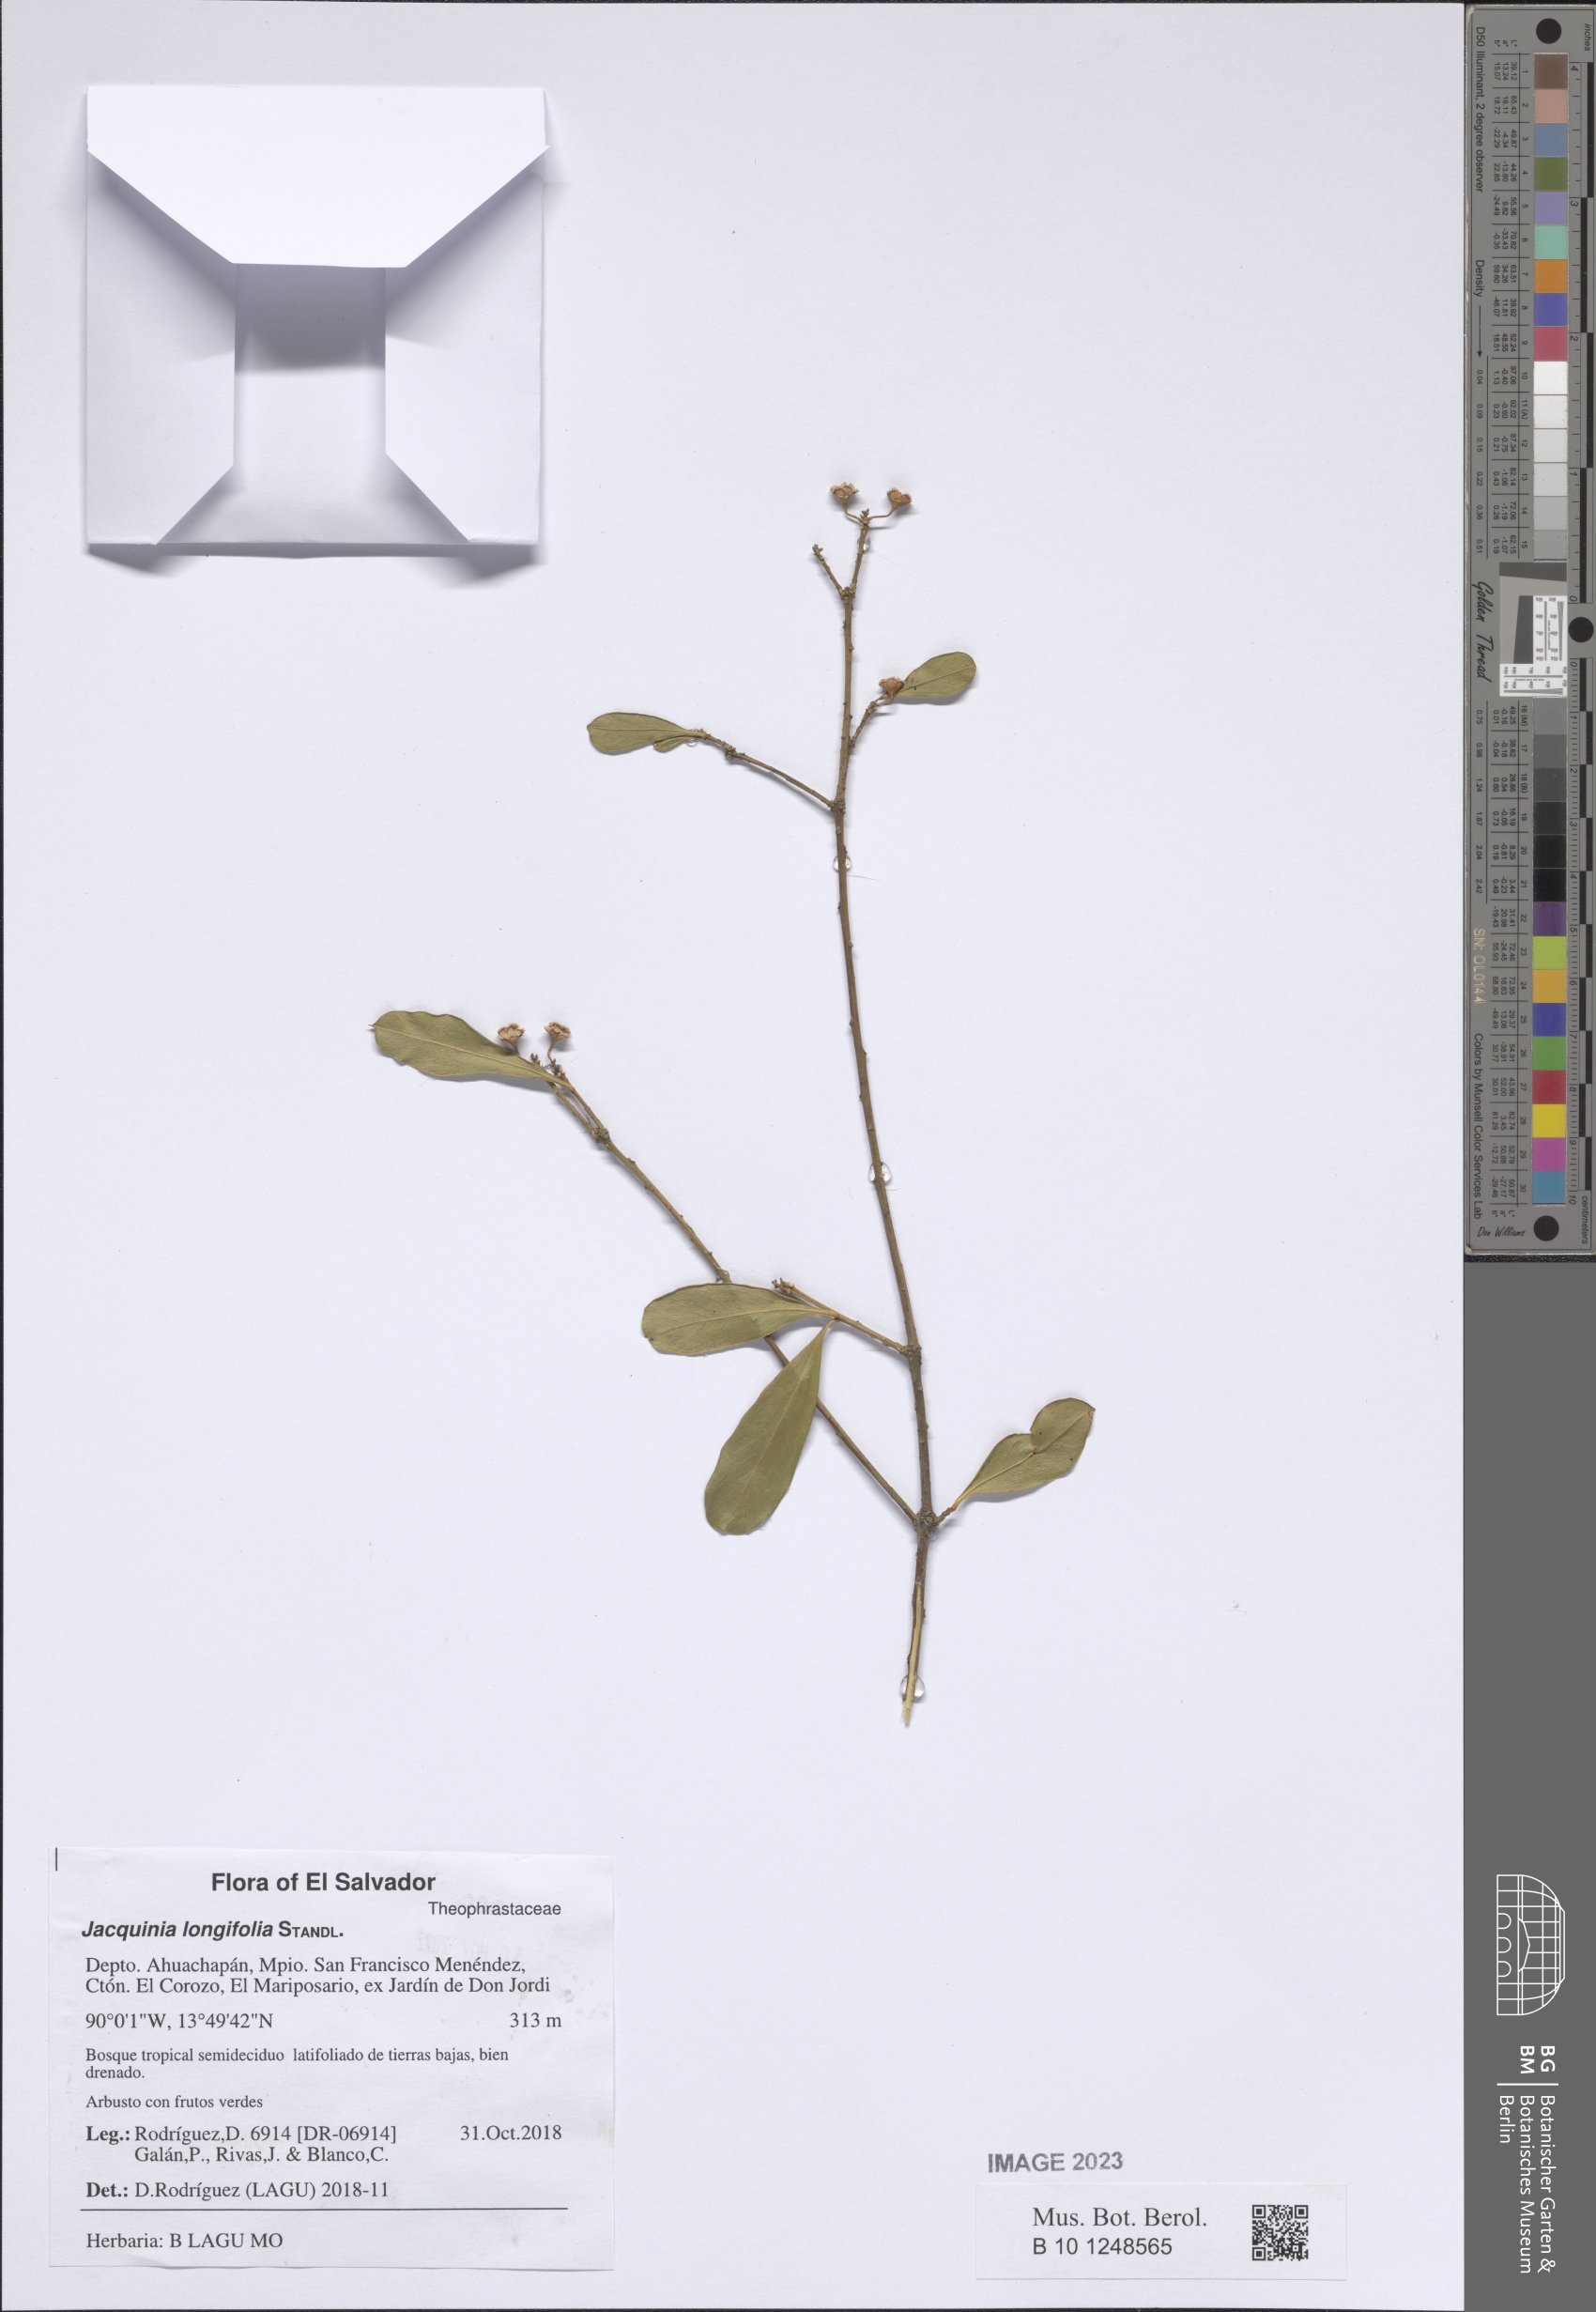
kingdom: Plantae
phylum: Tracheophyta
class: Magnoliopsida
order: Ericales
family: Primulaceae
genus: Bonellia
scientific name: Bonellia longifolia
